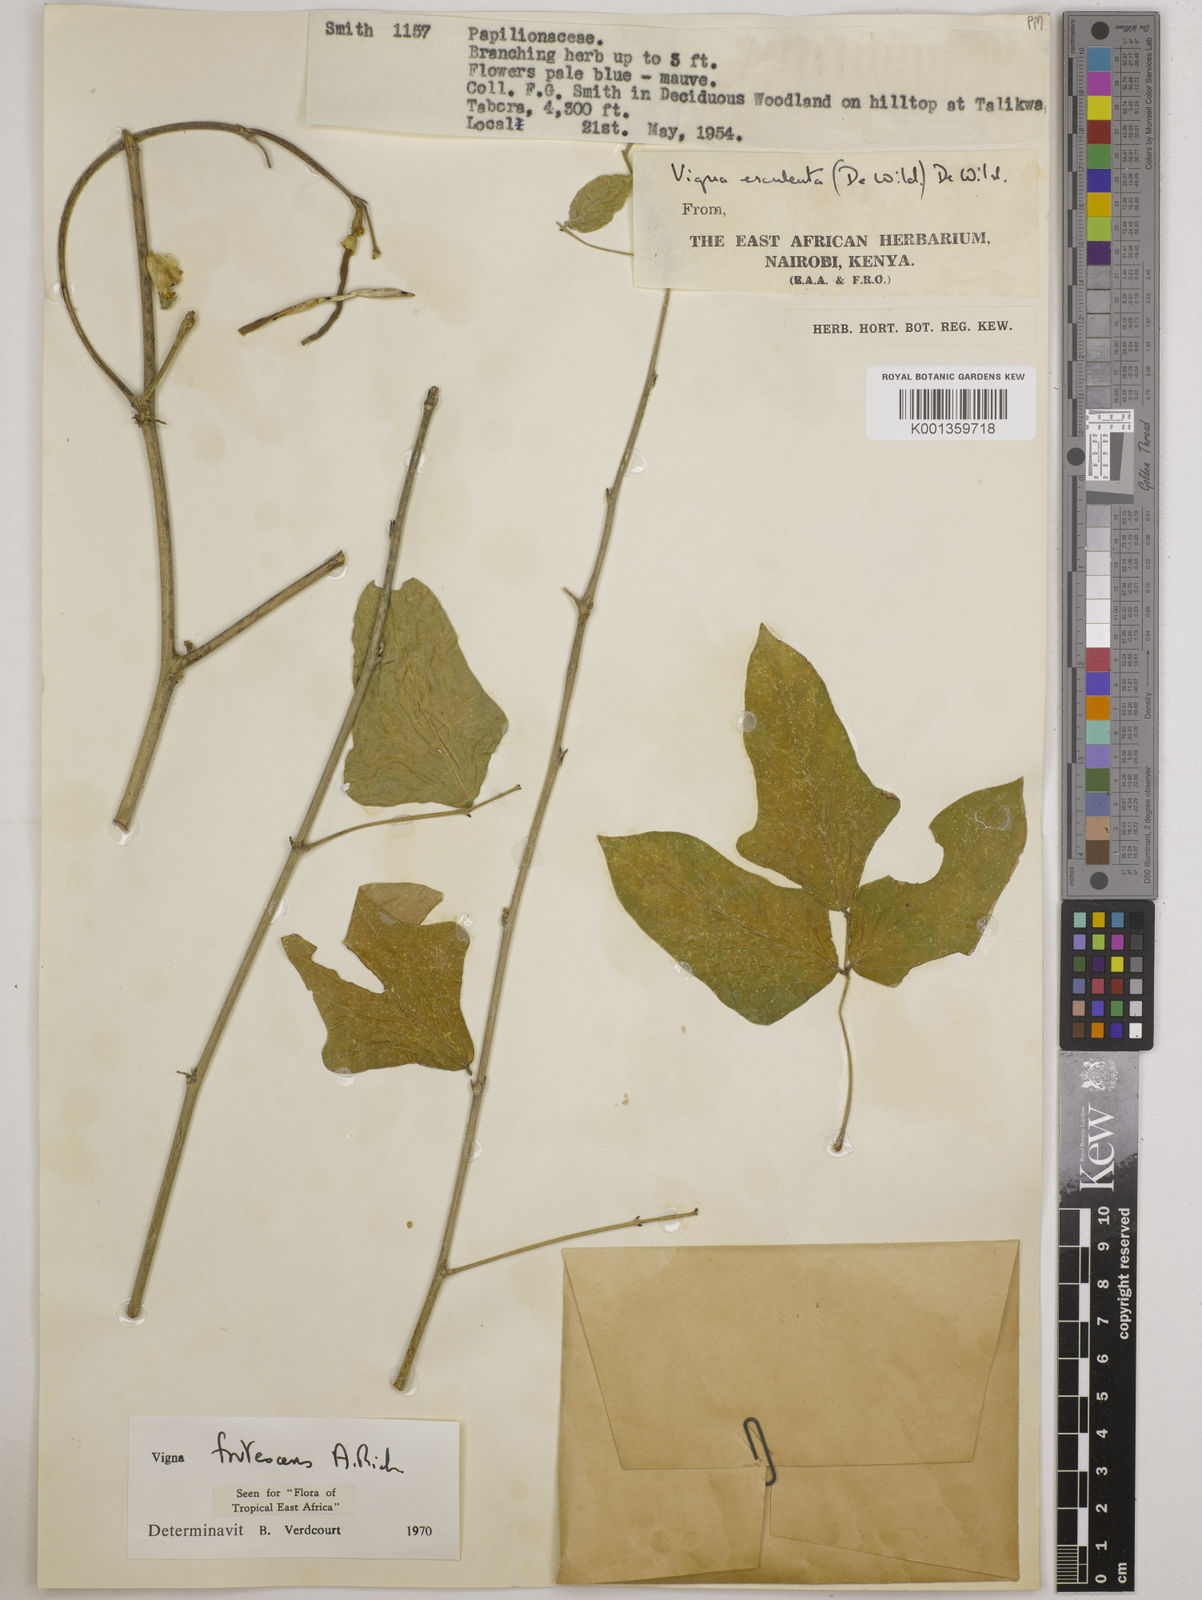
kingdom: Plantae
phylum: Tracheophyta
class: Magnoliopsida
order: Fabales
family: Fabaceae
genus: Vigna
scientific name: Vigna frutescens
